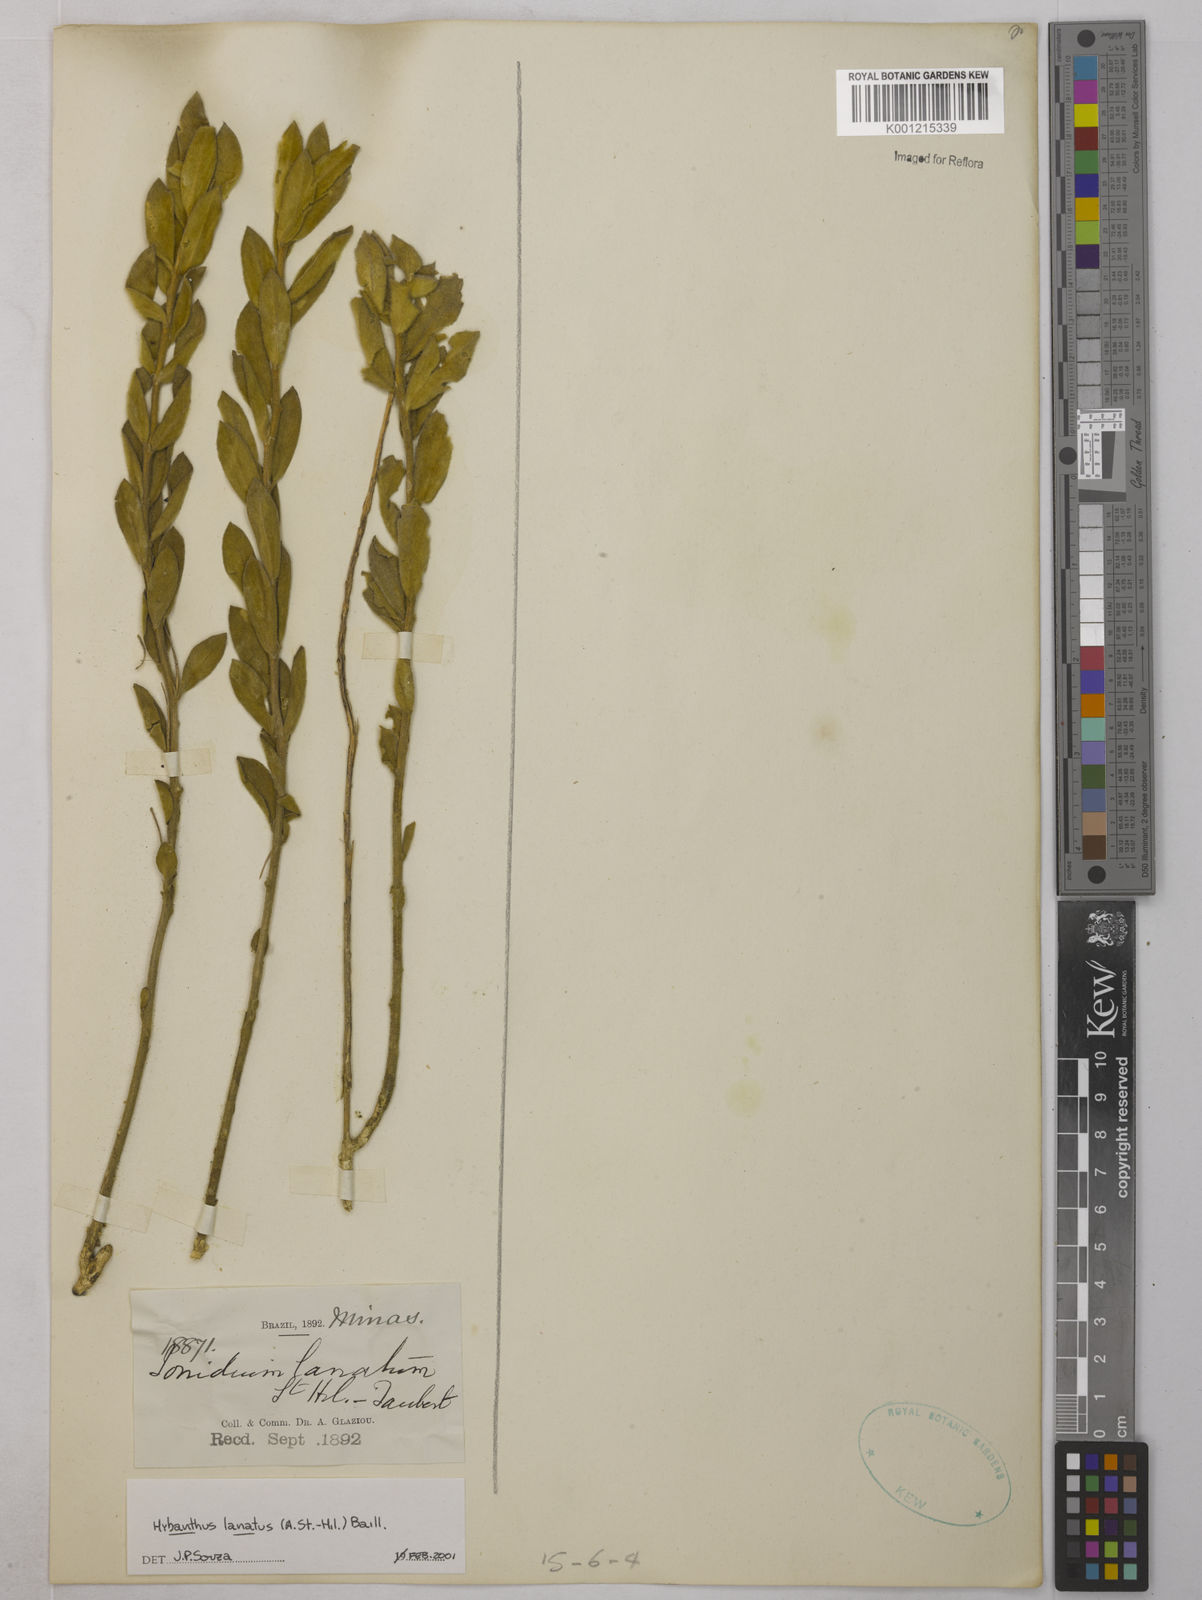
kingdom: Plantae
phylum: Tracheophyta
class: Magnoliopsida
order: Malpighiales
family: Violaceae
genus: Pombalia
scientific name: Pombalia lanata
